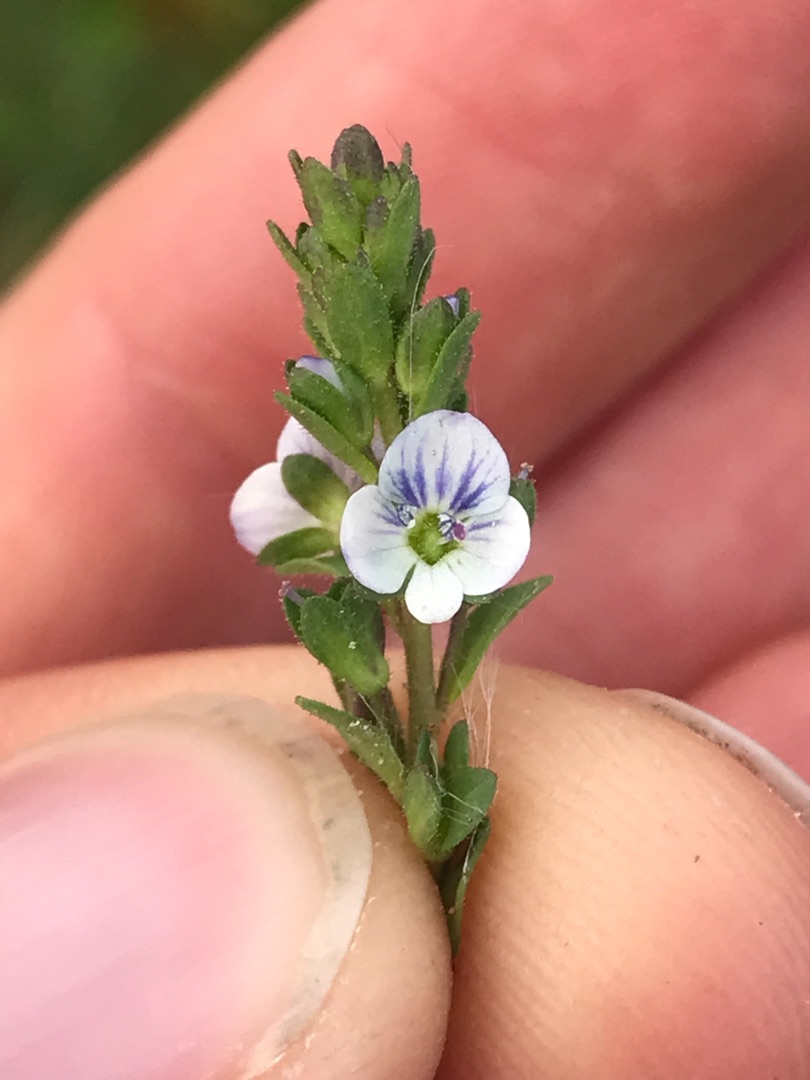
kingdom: Plantae
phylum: Tracheophyta
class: Magnoliopsida
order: Lamiales
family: Plantaginaceae
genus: Veronica
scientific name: Veronica serpyllifolia
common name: Glat ærenpris
